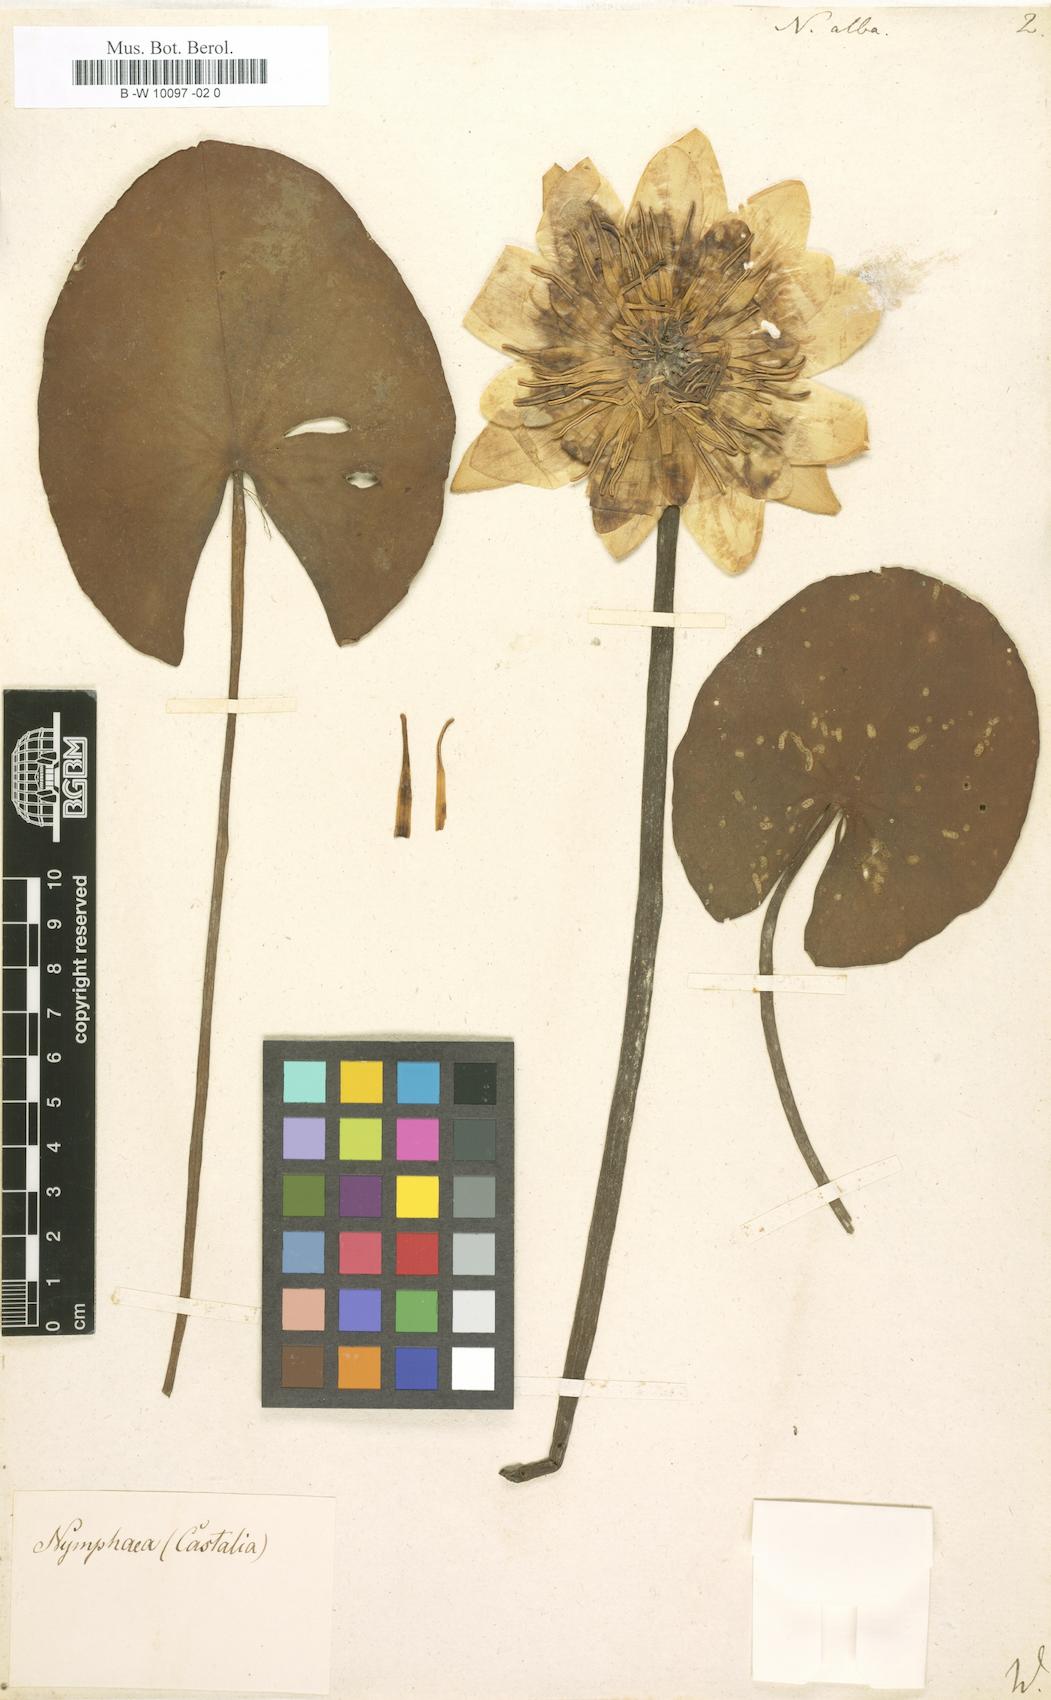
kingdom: Plantae
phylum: Tracheophyta
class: Magnoliopsida
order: Nymphaeales
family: Nymphaeaceae
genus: Nymphaea
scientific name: Nymphaea alba
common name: White water-lily
